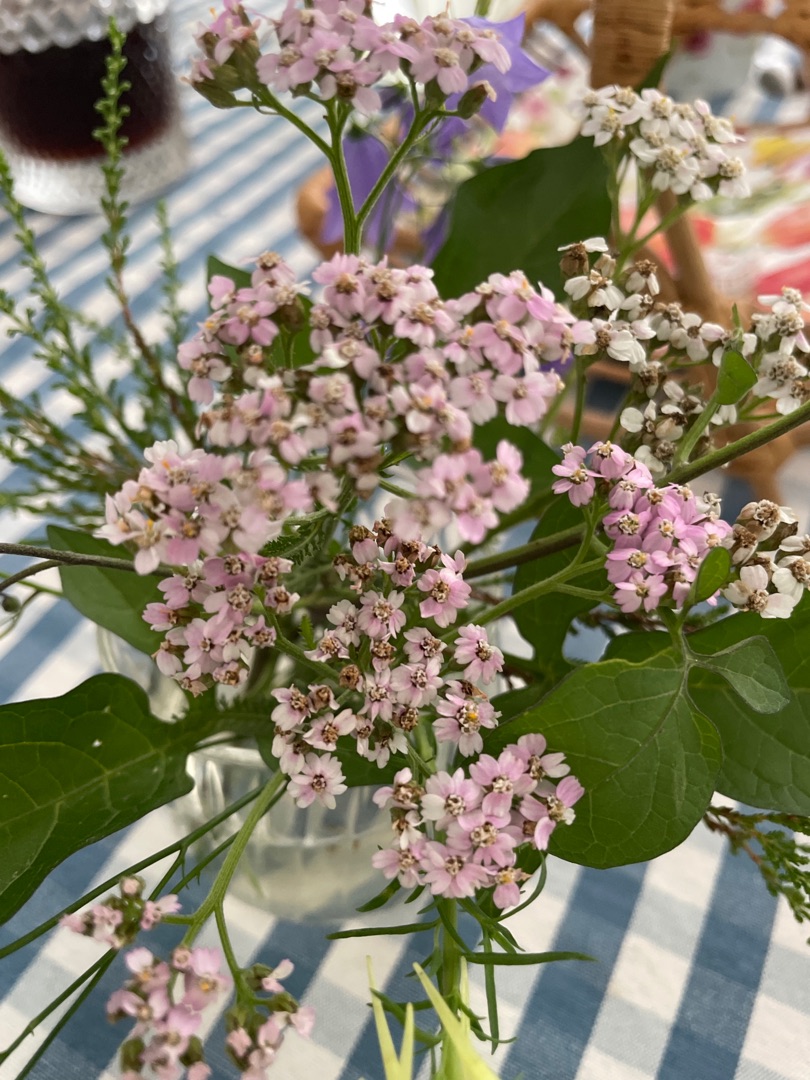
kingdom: Plantae
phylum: Tracheophyta
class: Magnoliopsida
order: Asterales
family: Asteraceae
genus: Achillea
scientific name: Achillea millefolium
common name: Almindelig røllike
